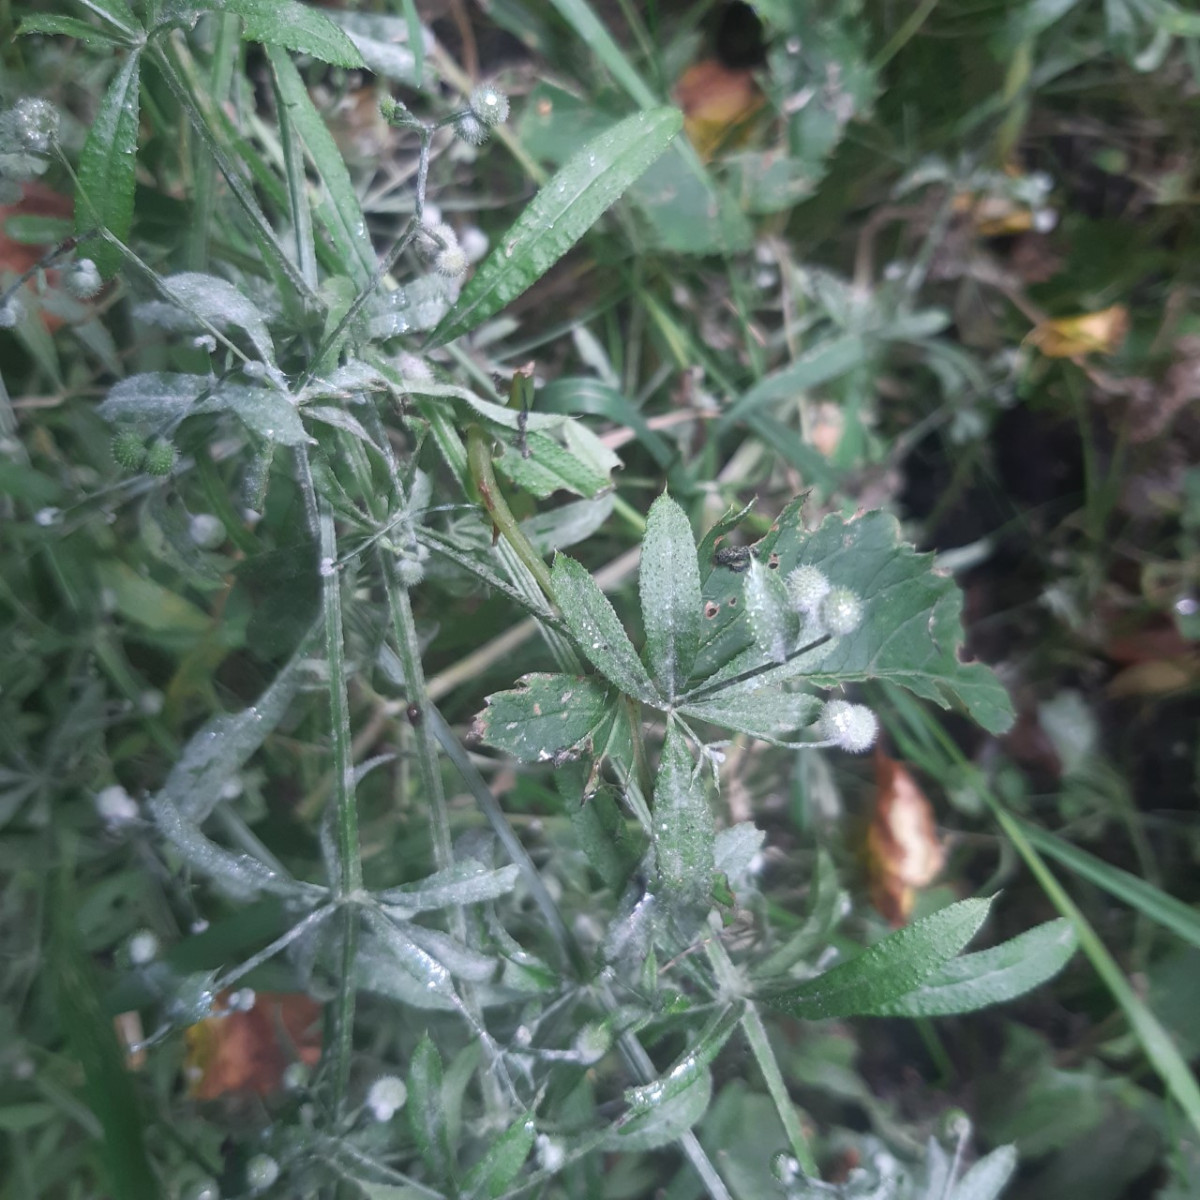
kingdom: Fungi
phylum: Ascomycota
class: Leotiomycetes
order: Helotiales
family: Erysiphaceae
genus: Neoerysiphe
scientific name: Neoerysiphe galii
